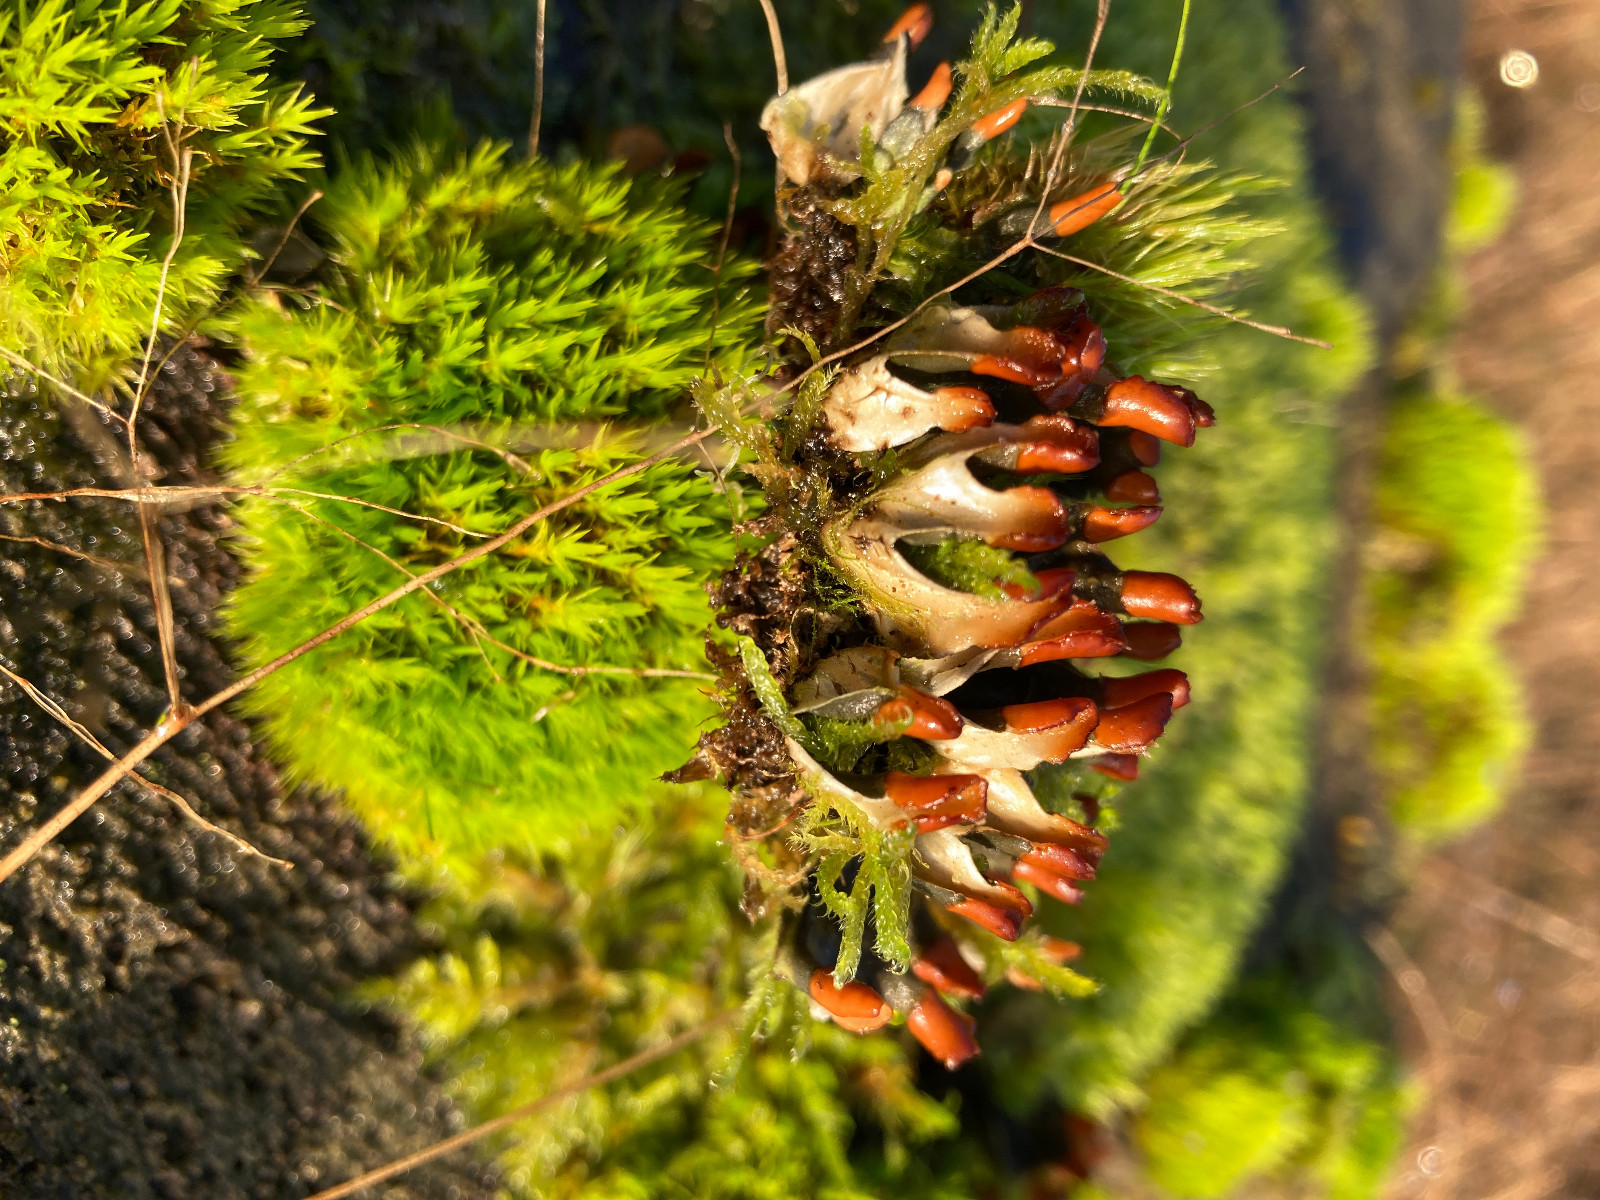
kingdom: Fungi
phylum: Ascomycota
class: Lecanoromycetes
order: Peltigerales
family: Peltigeraceae
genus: Peltigera
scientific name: Peltigera didactyla
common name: liden skjoldlav
